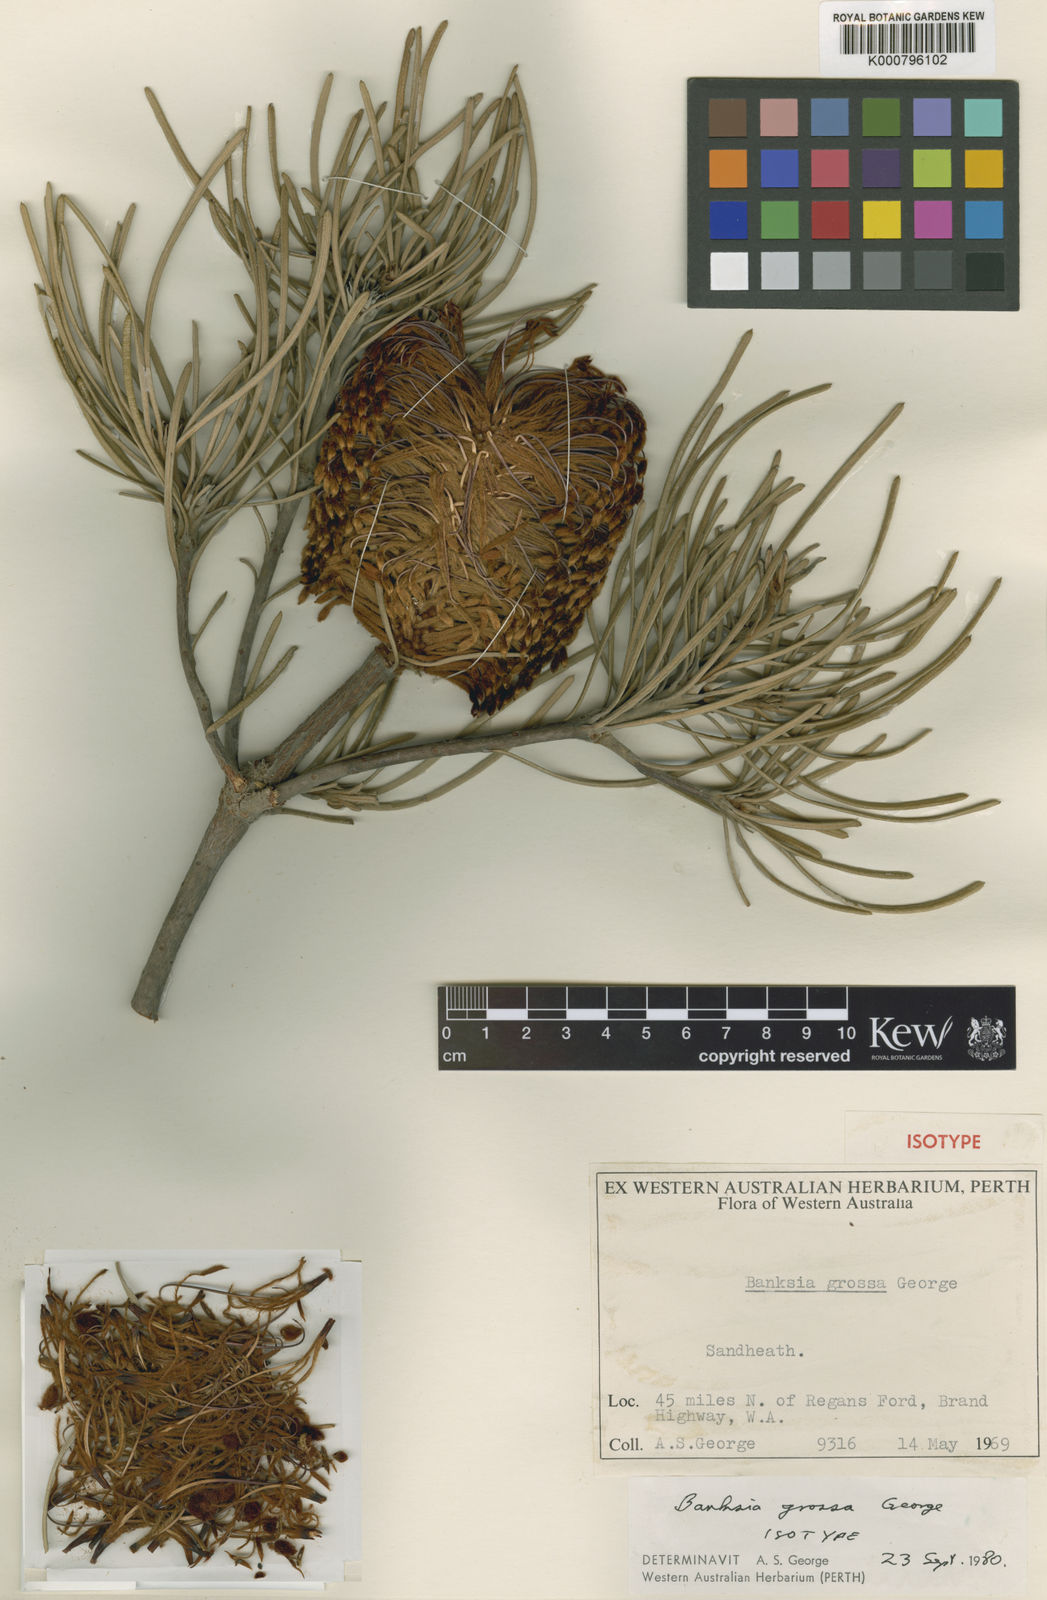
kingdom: Plantae
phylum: Tracheophyta
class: Magnoliopsida
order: Proteales
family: Proteaceae
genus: Banksia
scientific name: Banksia grossa
